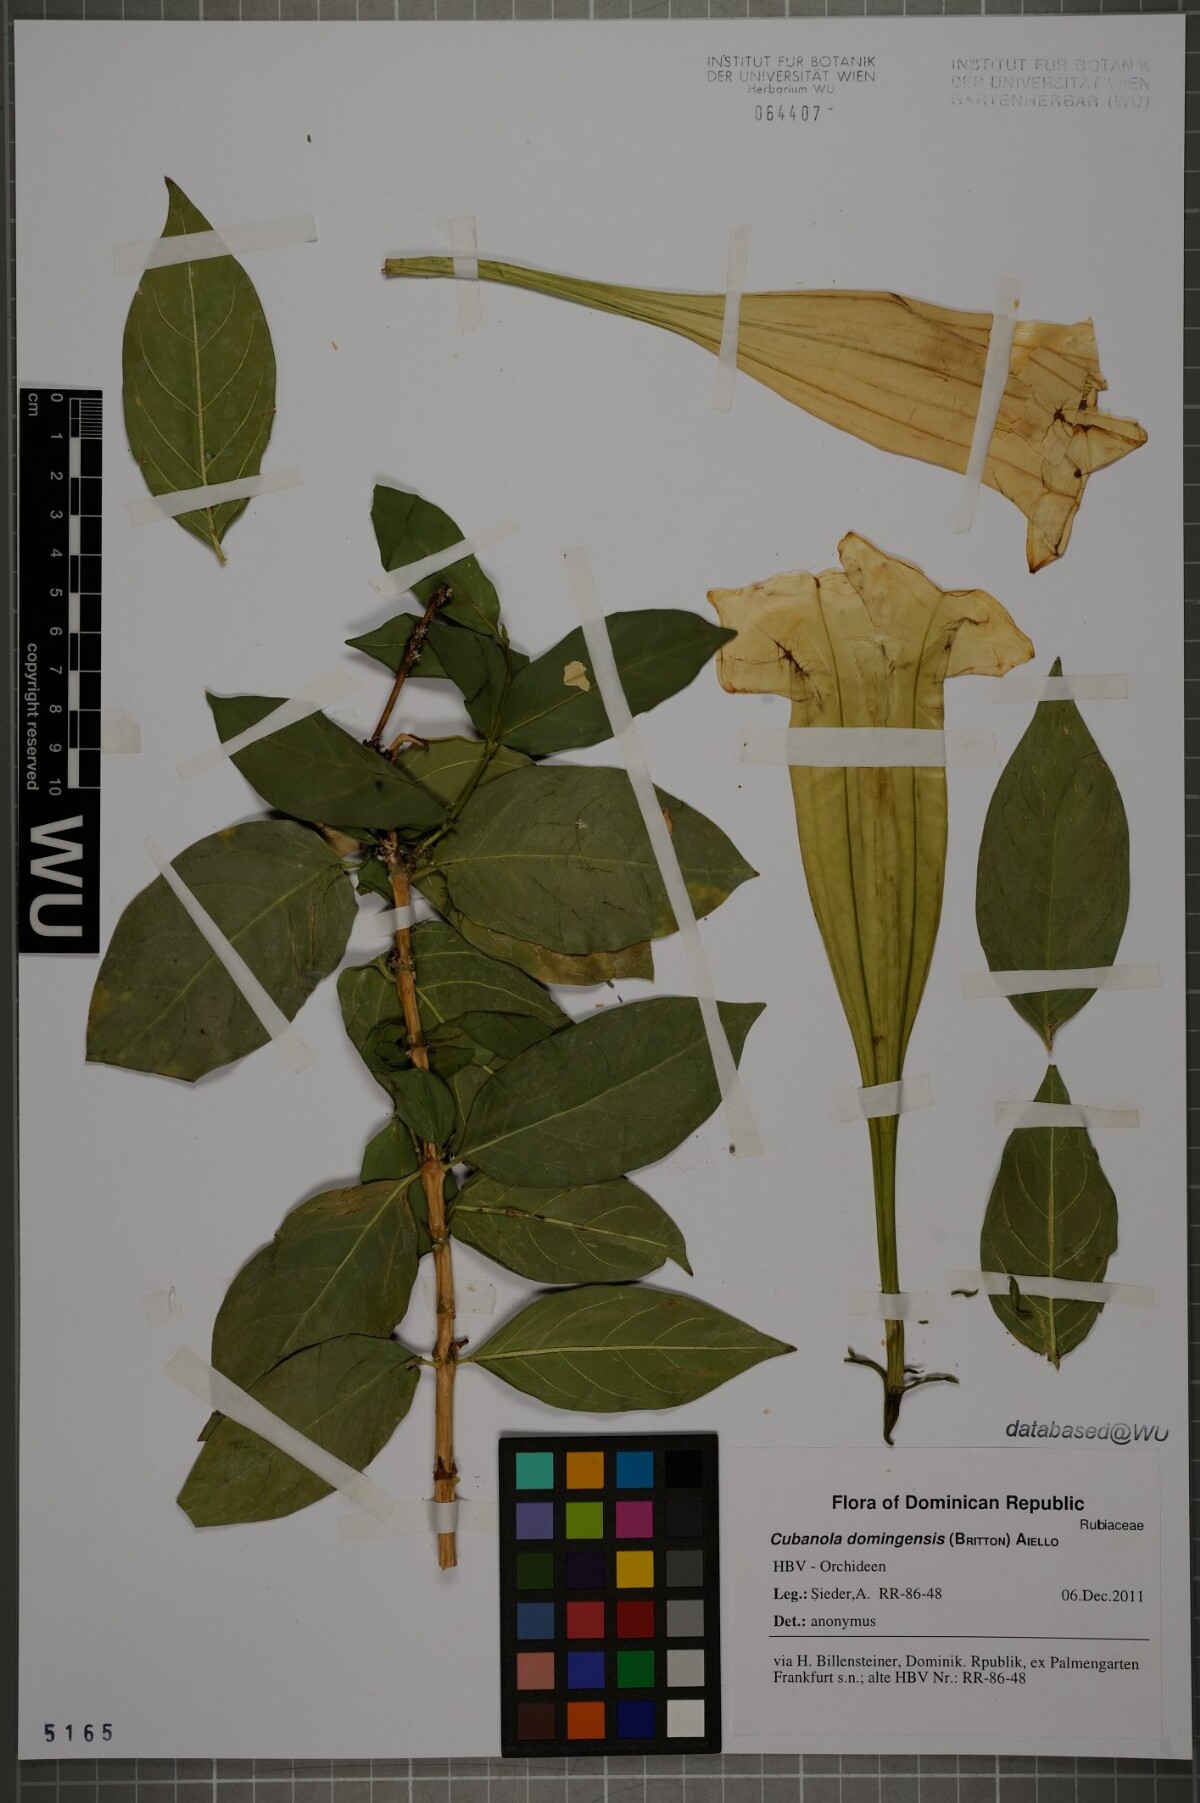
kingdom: Plantae
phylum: Tracheophyta
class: Magnoliopsida
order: Gentianales
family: Rubiaceae
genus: Cubanola
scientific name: Cubanola domingensis
